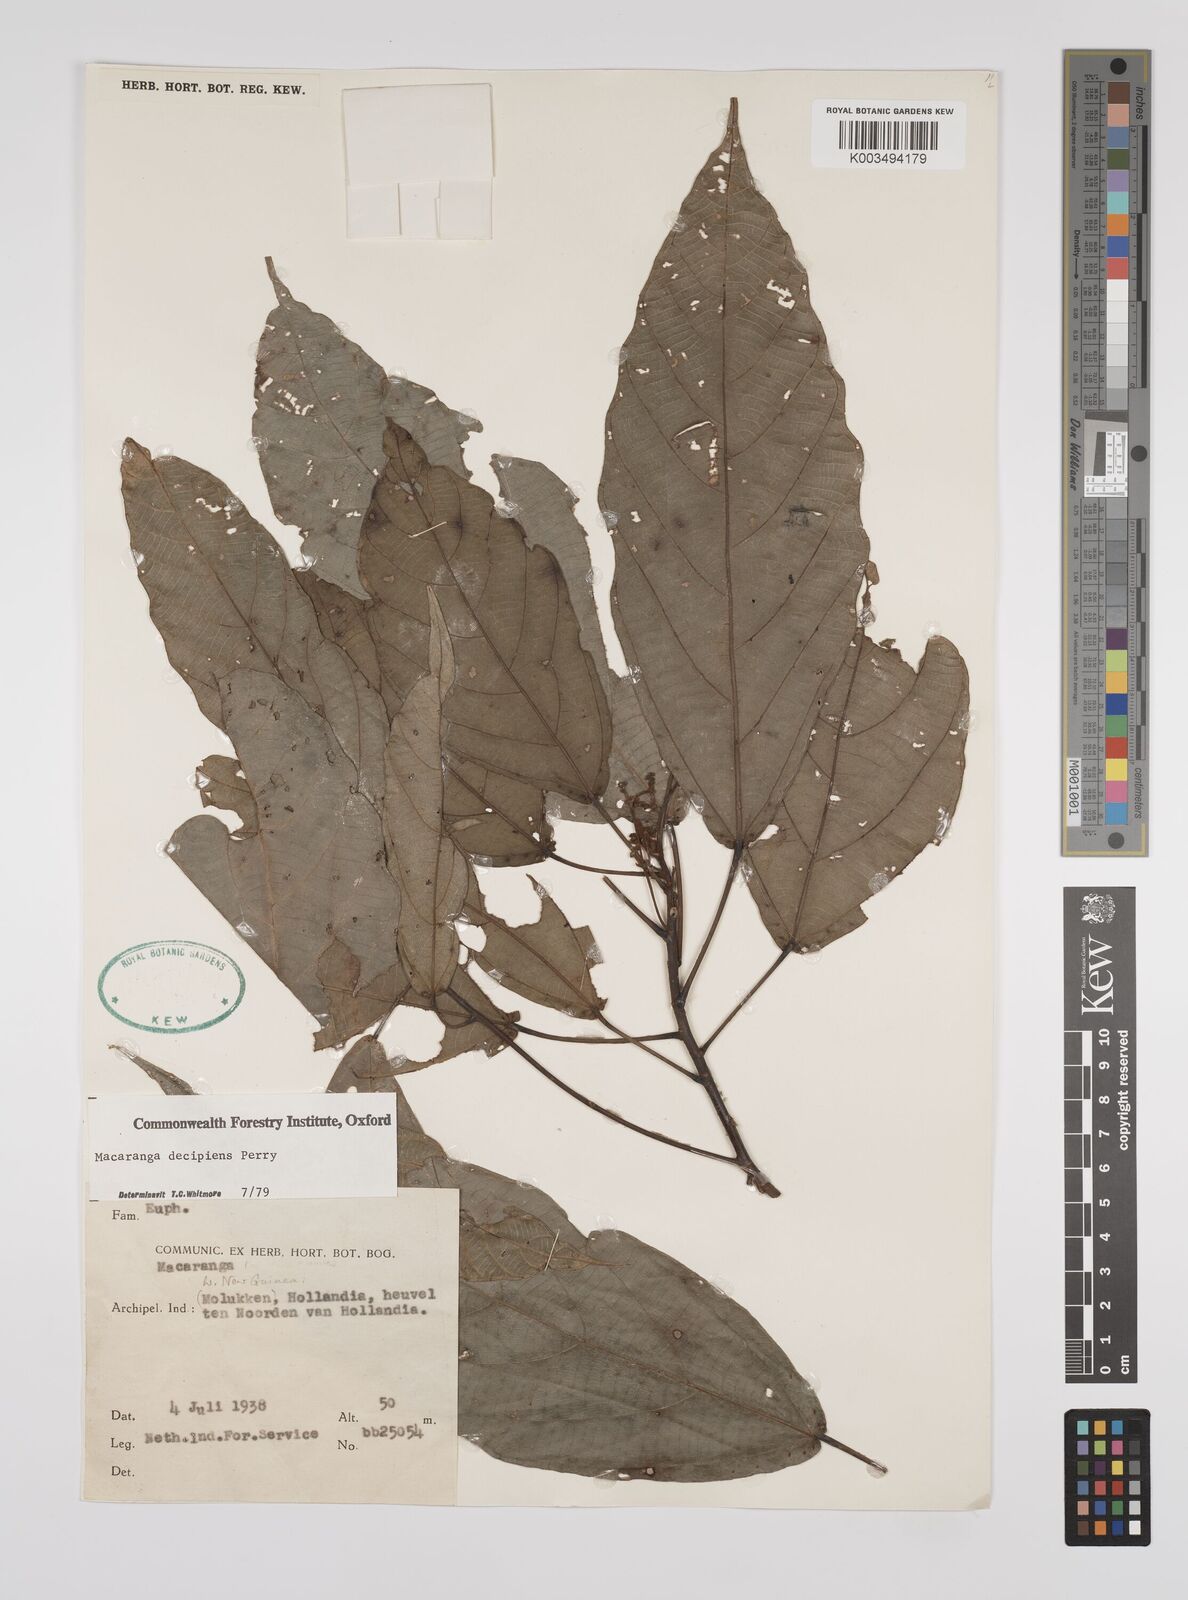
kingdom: Plantae
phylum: Tracheophyta
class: Magnoliopsida
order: Malpighiales
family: Euphorbiaceae
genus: Macaranga
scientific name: Macaranga decipiens
